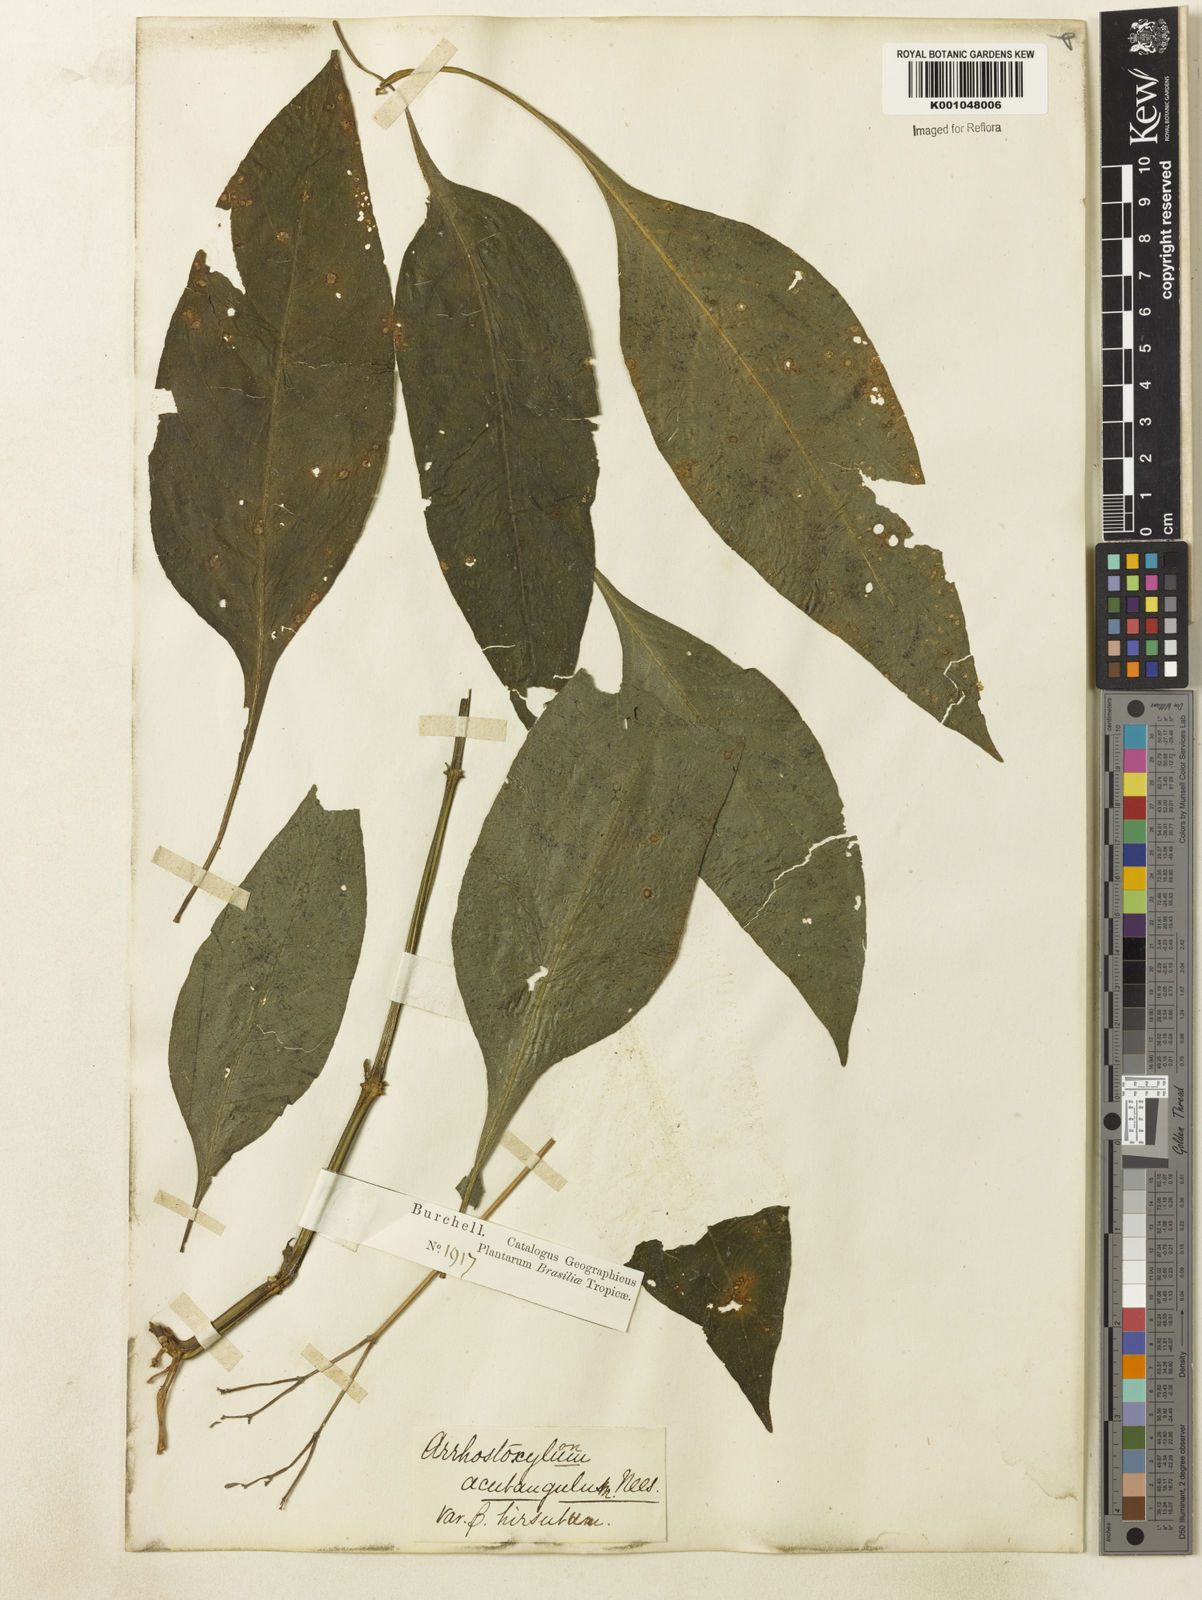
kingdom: Plantae
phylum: Tracheophyta
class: Magnoliopsida
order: Lamiales
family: Acanthaceae
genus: Ruellia
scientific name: Ruellia
